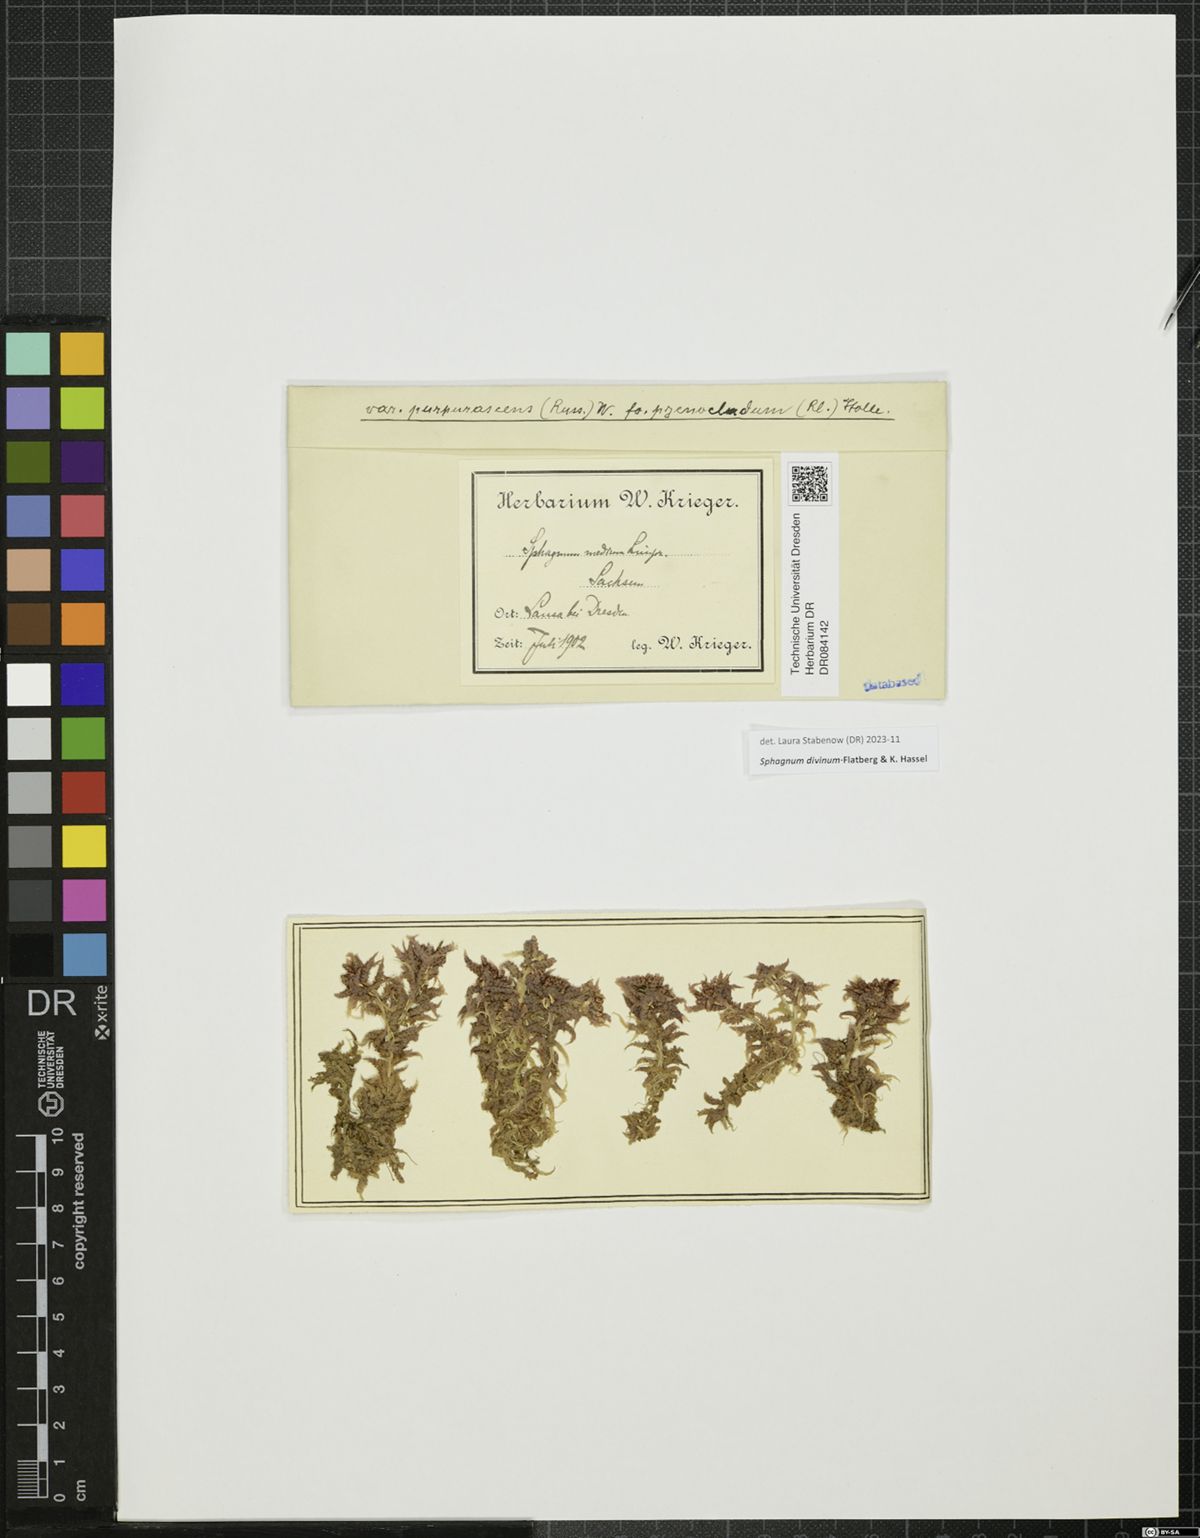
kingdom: Plantae
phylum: Bryophyta
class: Sphagnopsida
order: Sphagnales
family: Sphagnaceae
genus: Sphagnum
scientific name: Sphagnum divinum
